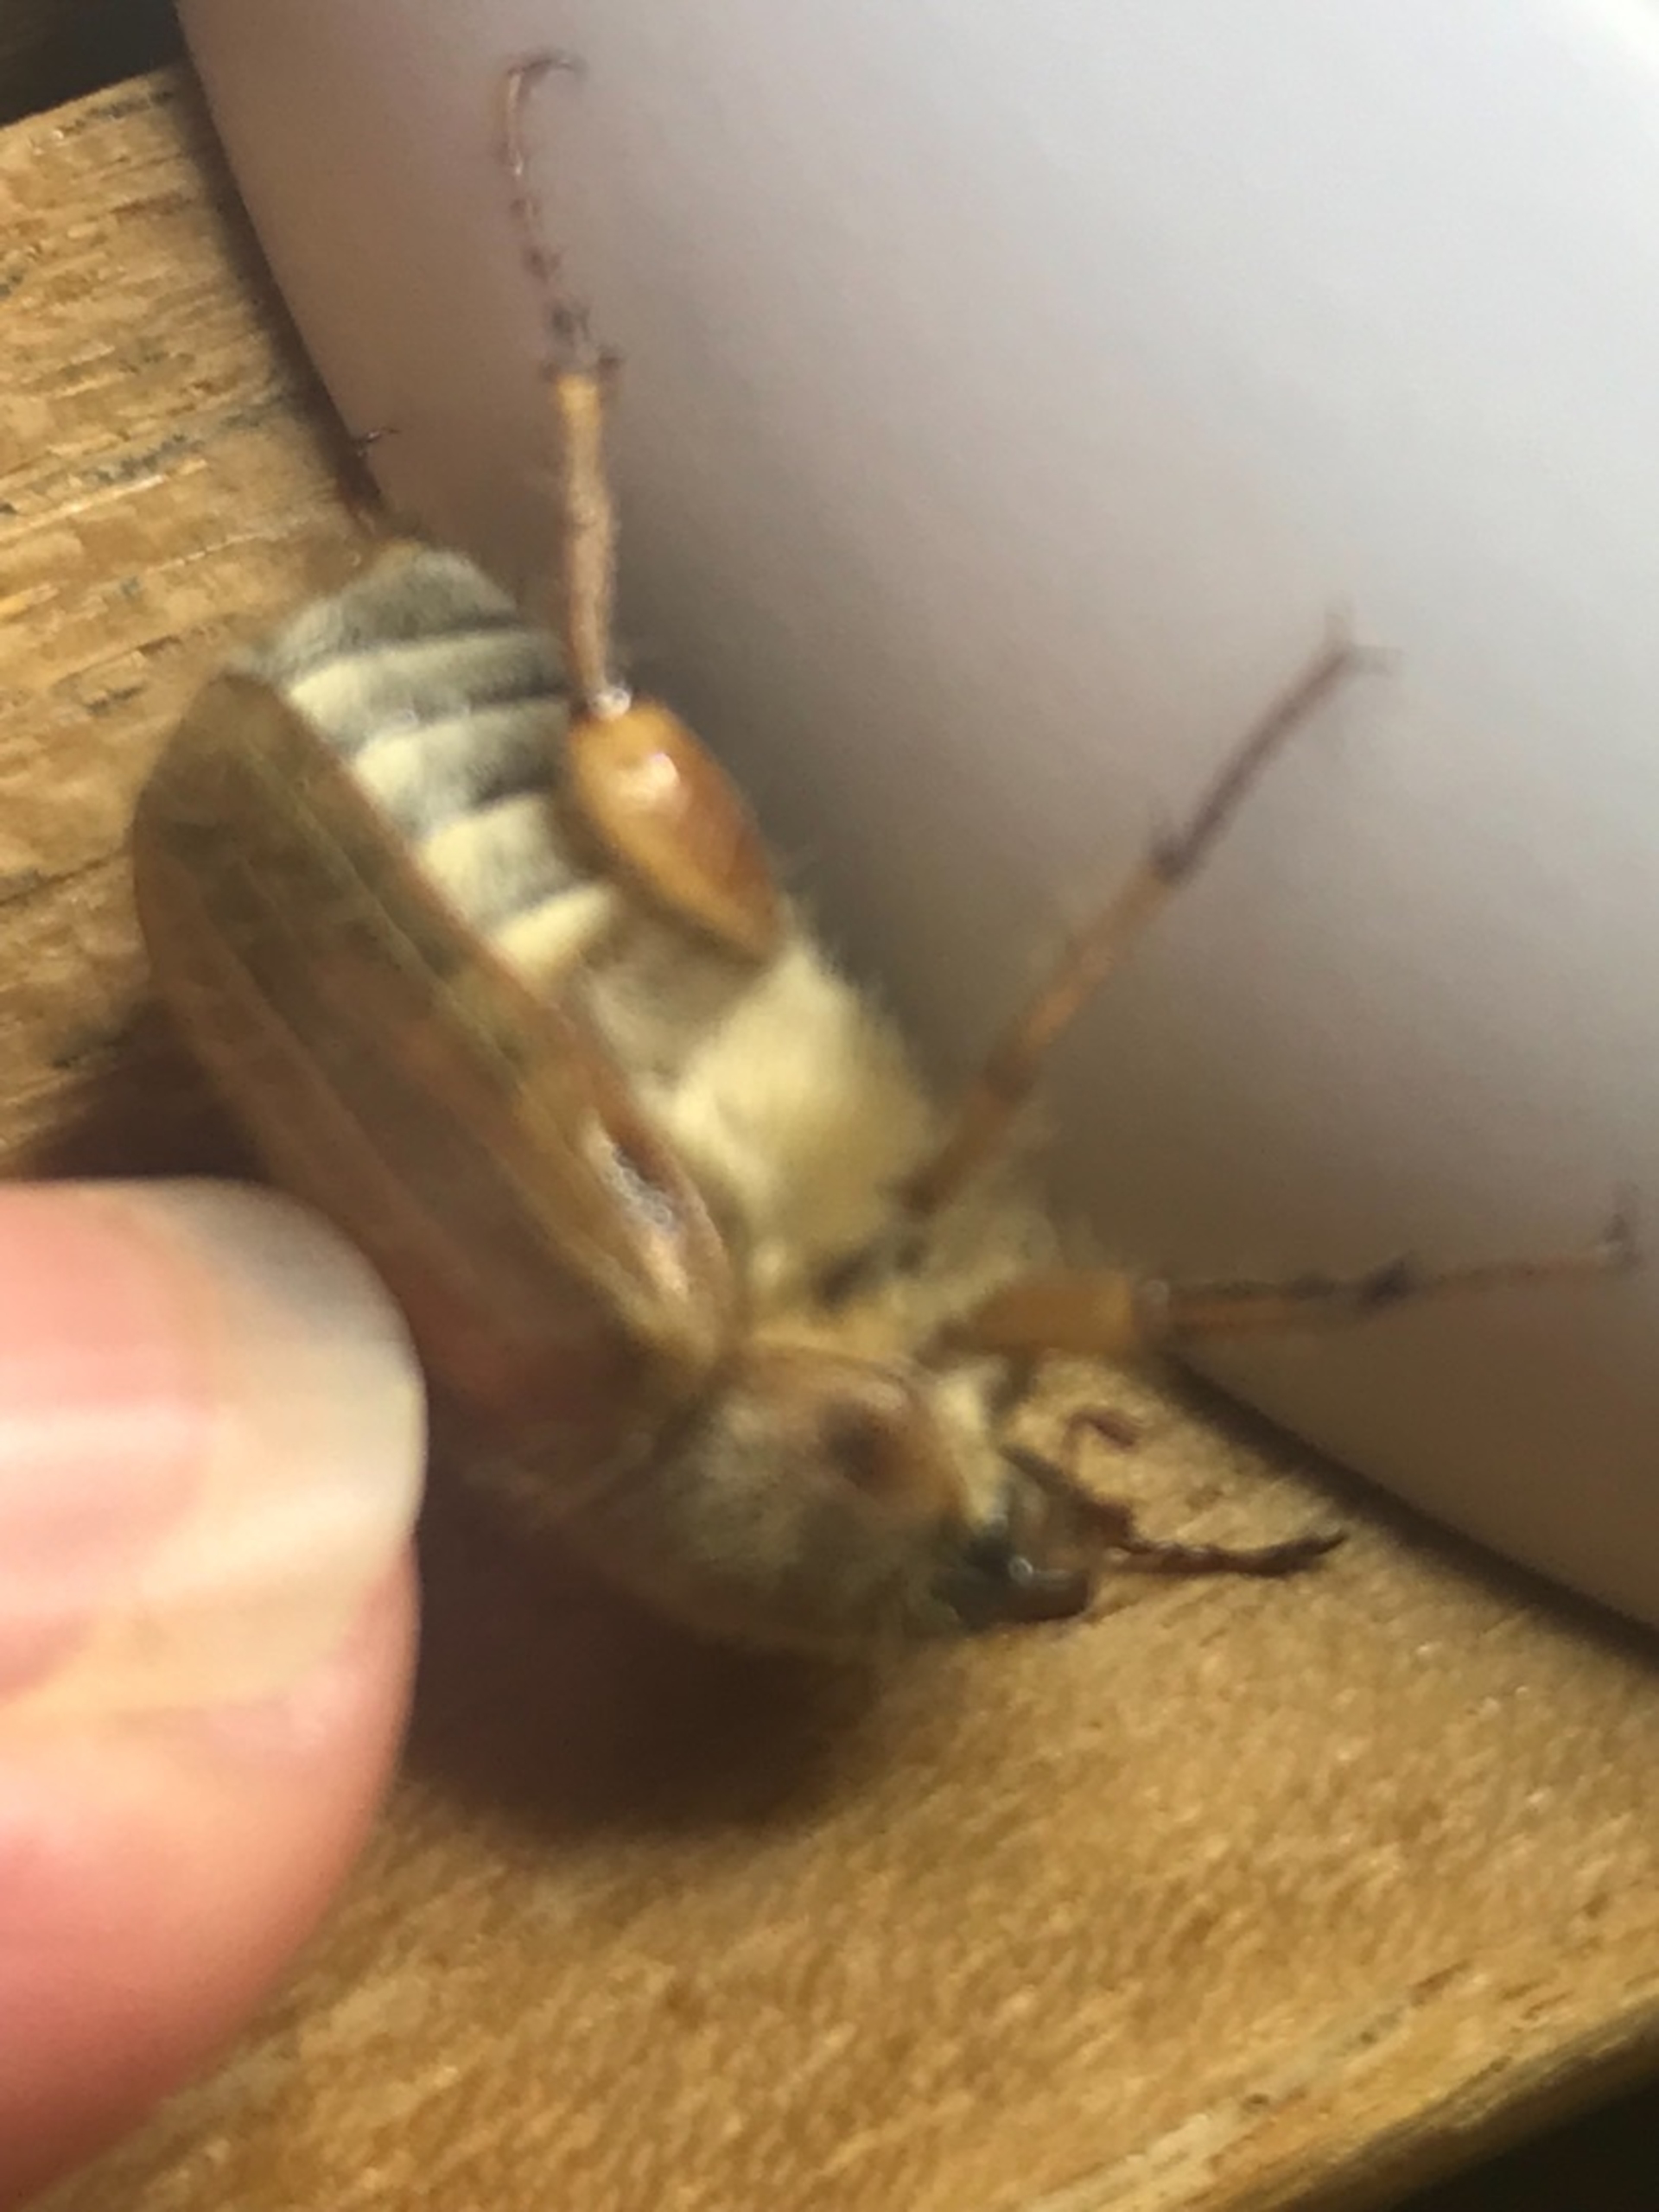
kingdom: Animalia
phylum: Arthropoda
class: Insecta
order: Coleoptera
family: Scarabaeidae
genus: Amphimallon
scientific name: Amphimallon solstitiale
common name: Sankthansoldenborre
